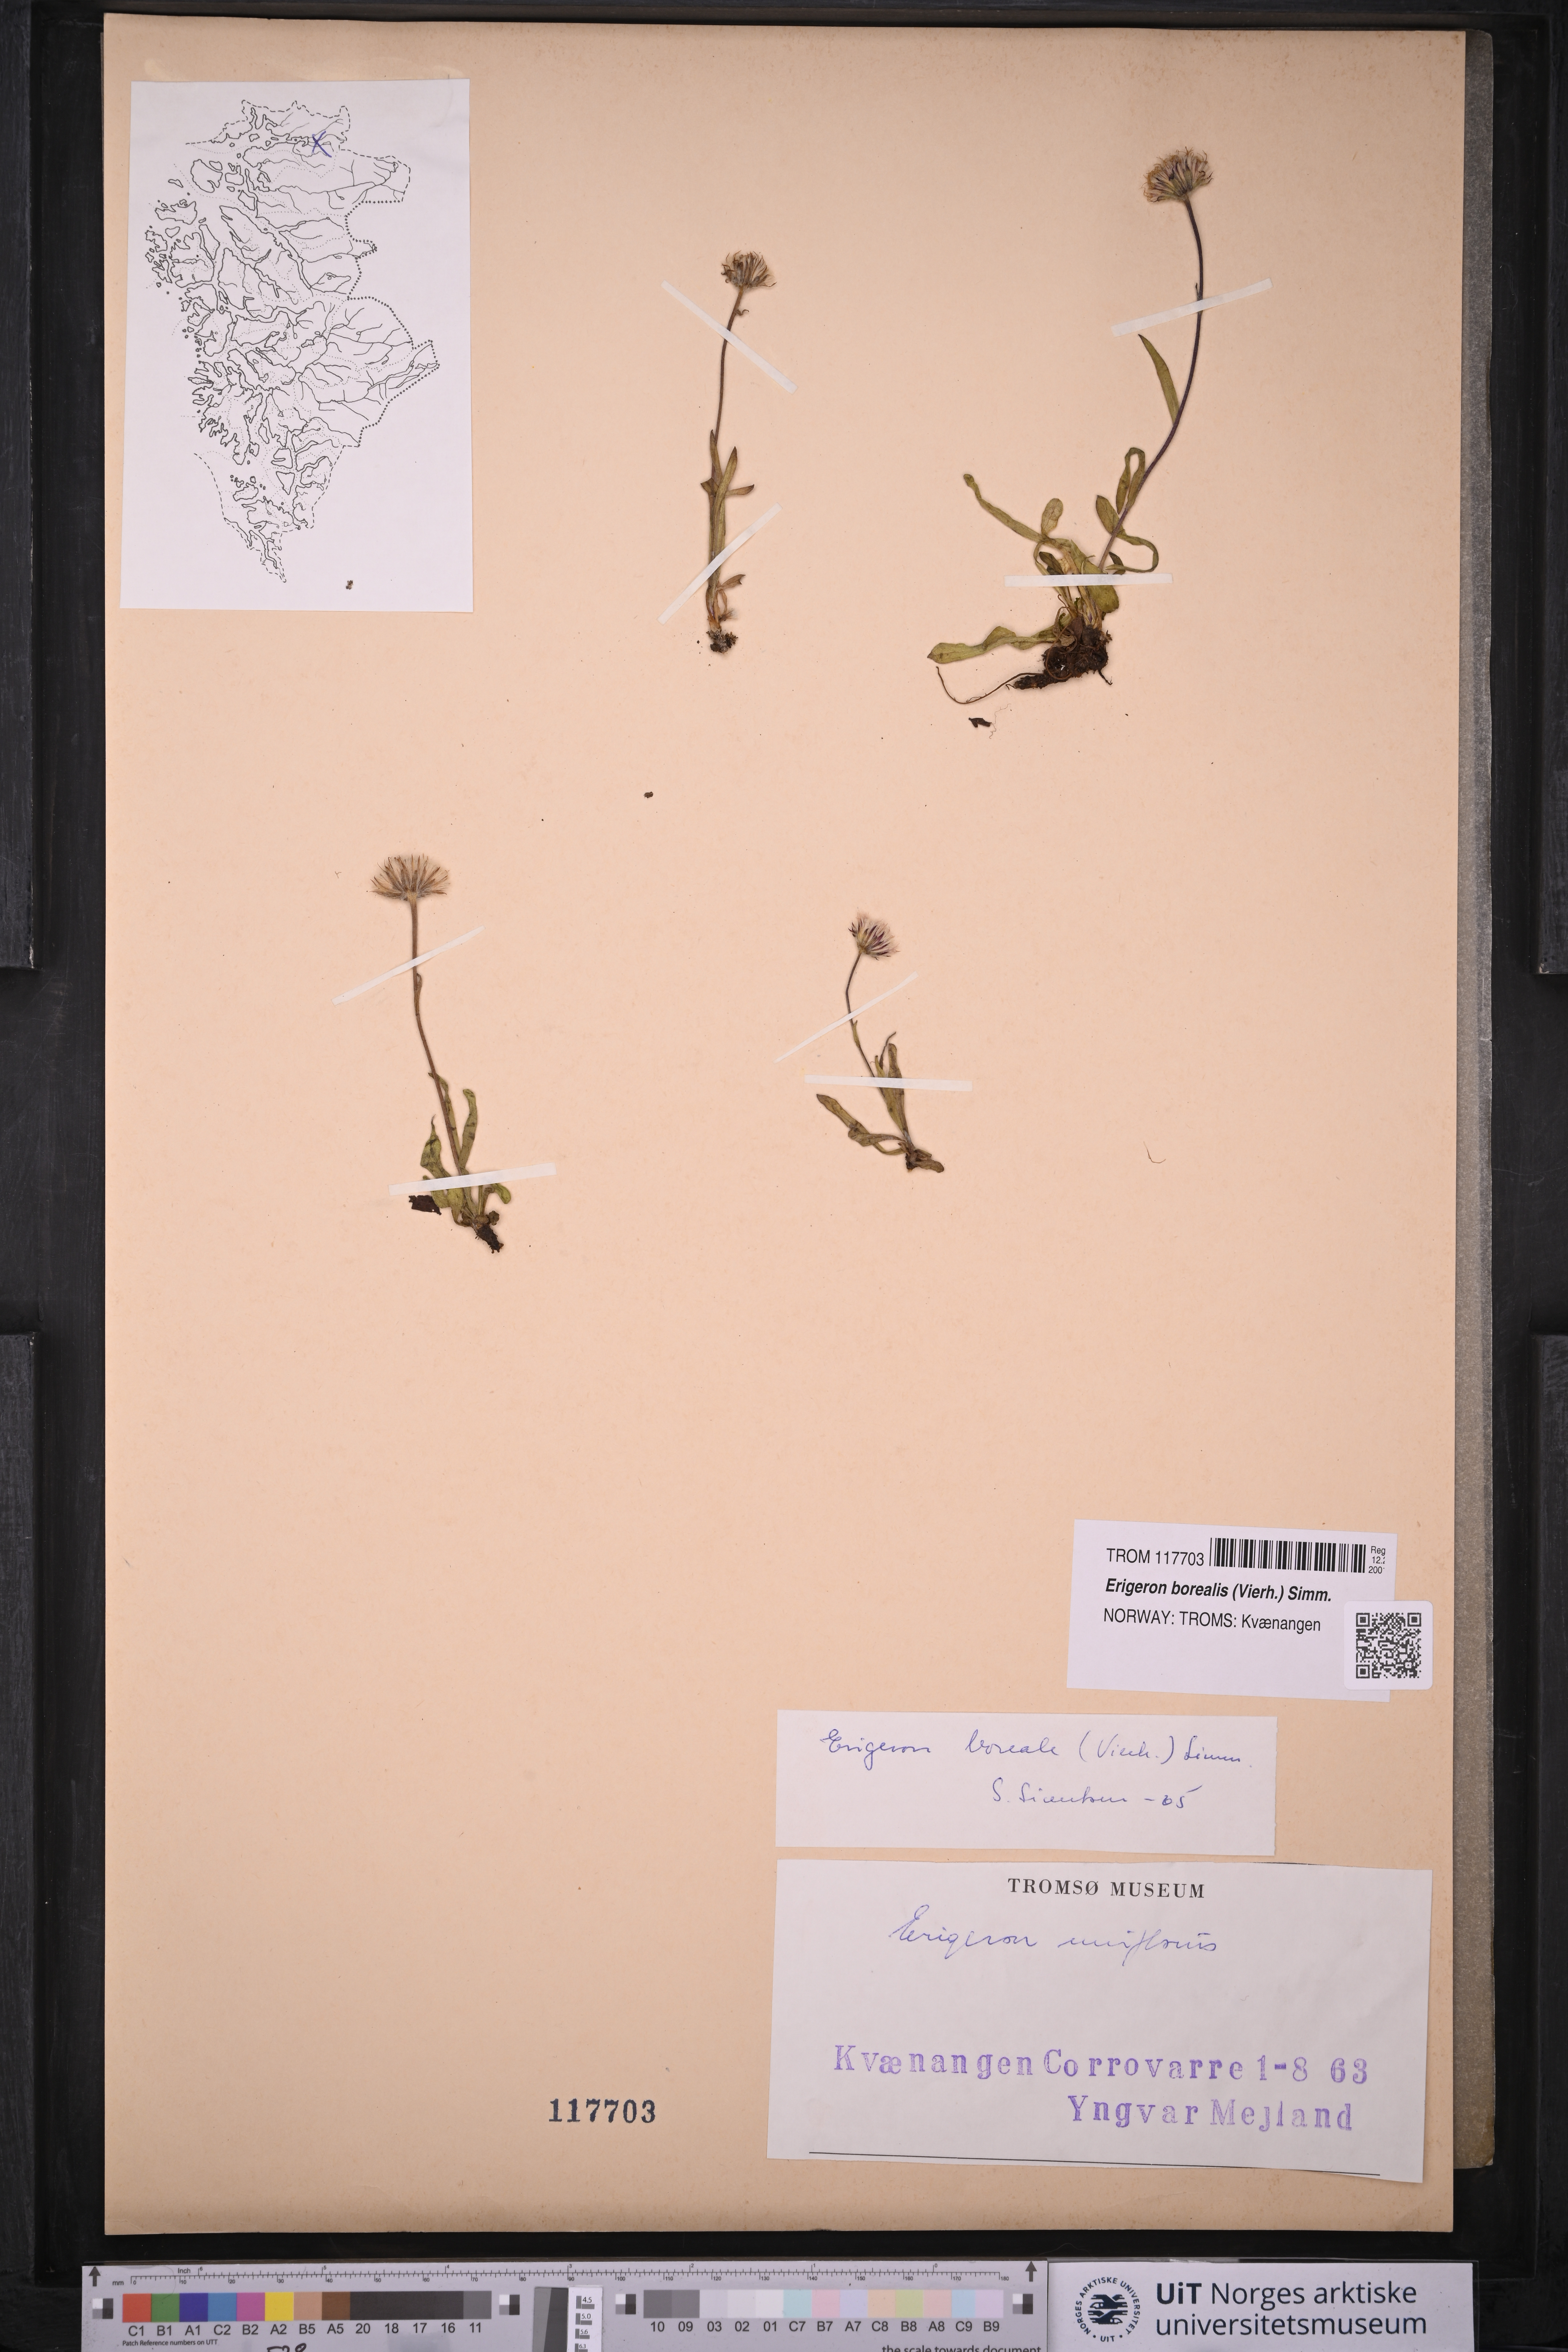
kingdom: Plantae
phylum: Tracheophyta
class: Magnoliopsida
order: Asterales
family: Asteraceae
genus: Erigeron
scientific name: Erigeron borealis
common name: Alpine fleabane
